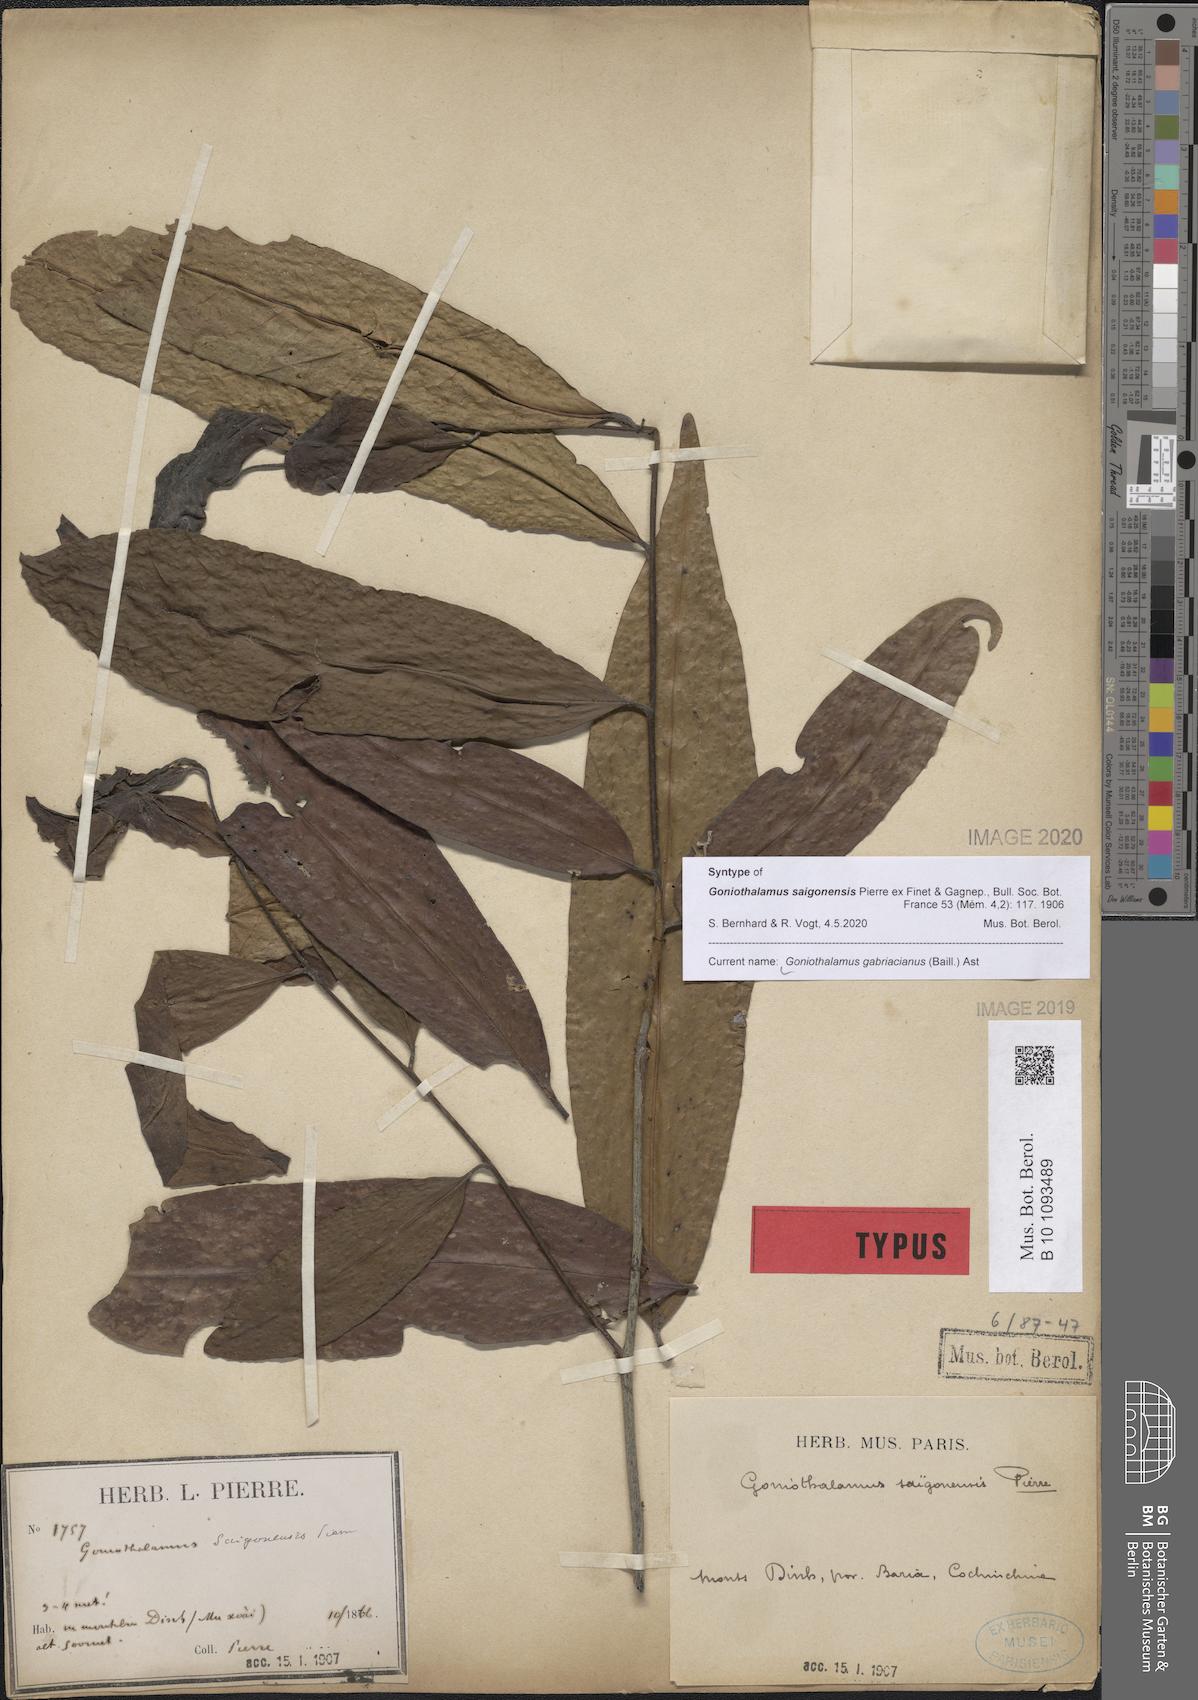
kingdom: Plantae
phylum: Tracheophyta
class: Magnoliopsida
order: Magnoliales
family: Annonaceae
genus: Goniothalamus
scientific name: Goniothalamus gabriacianus
